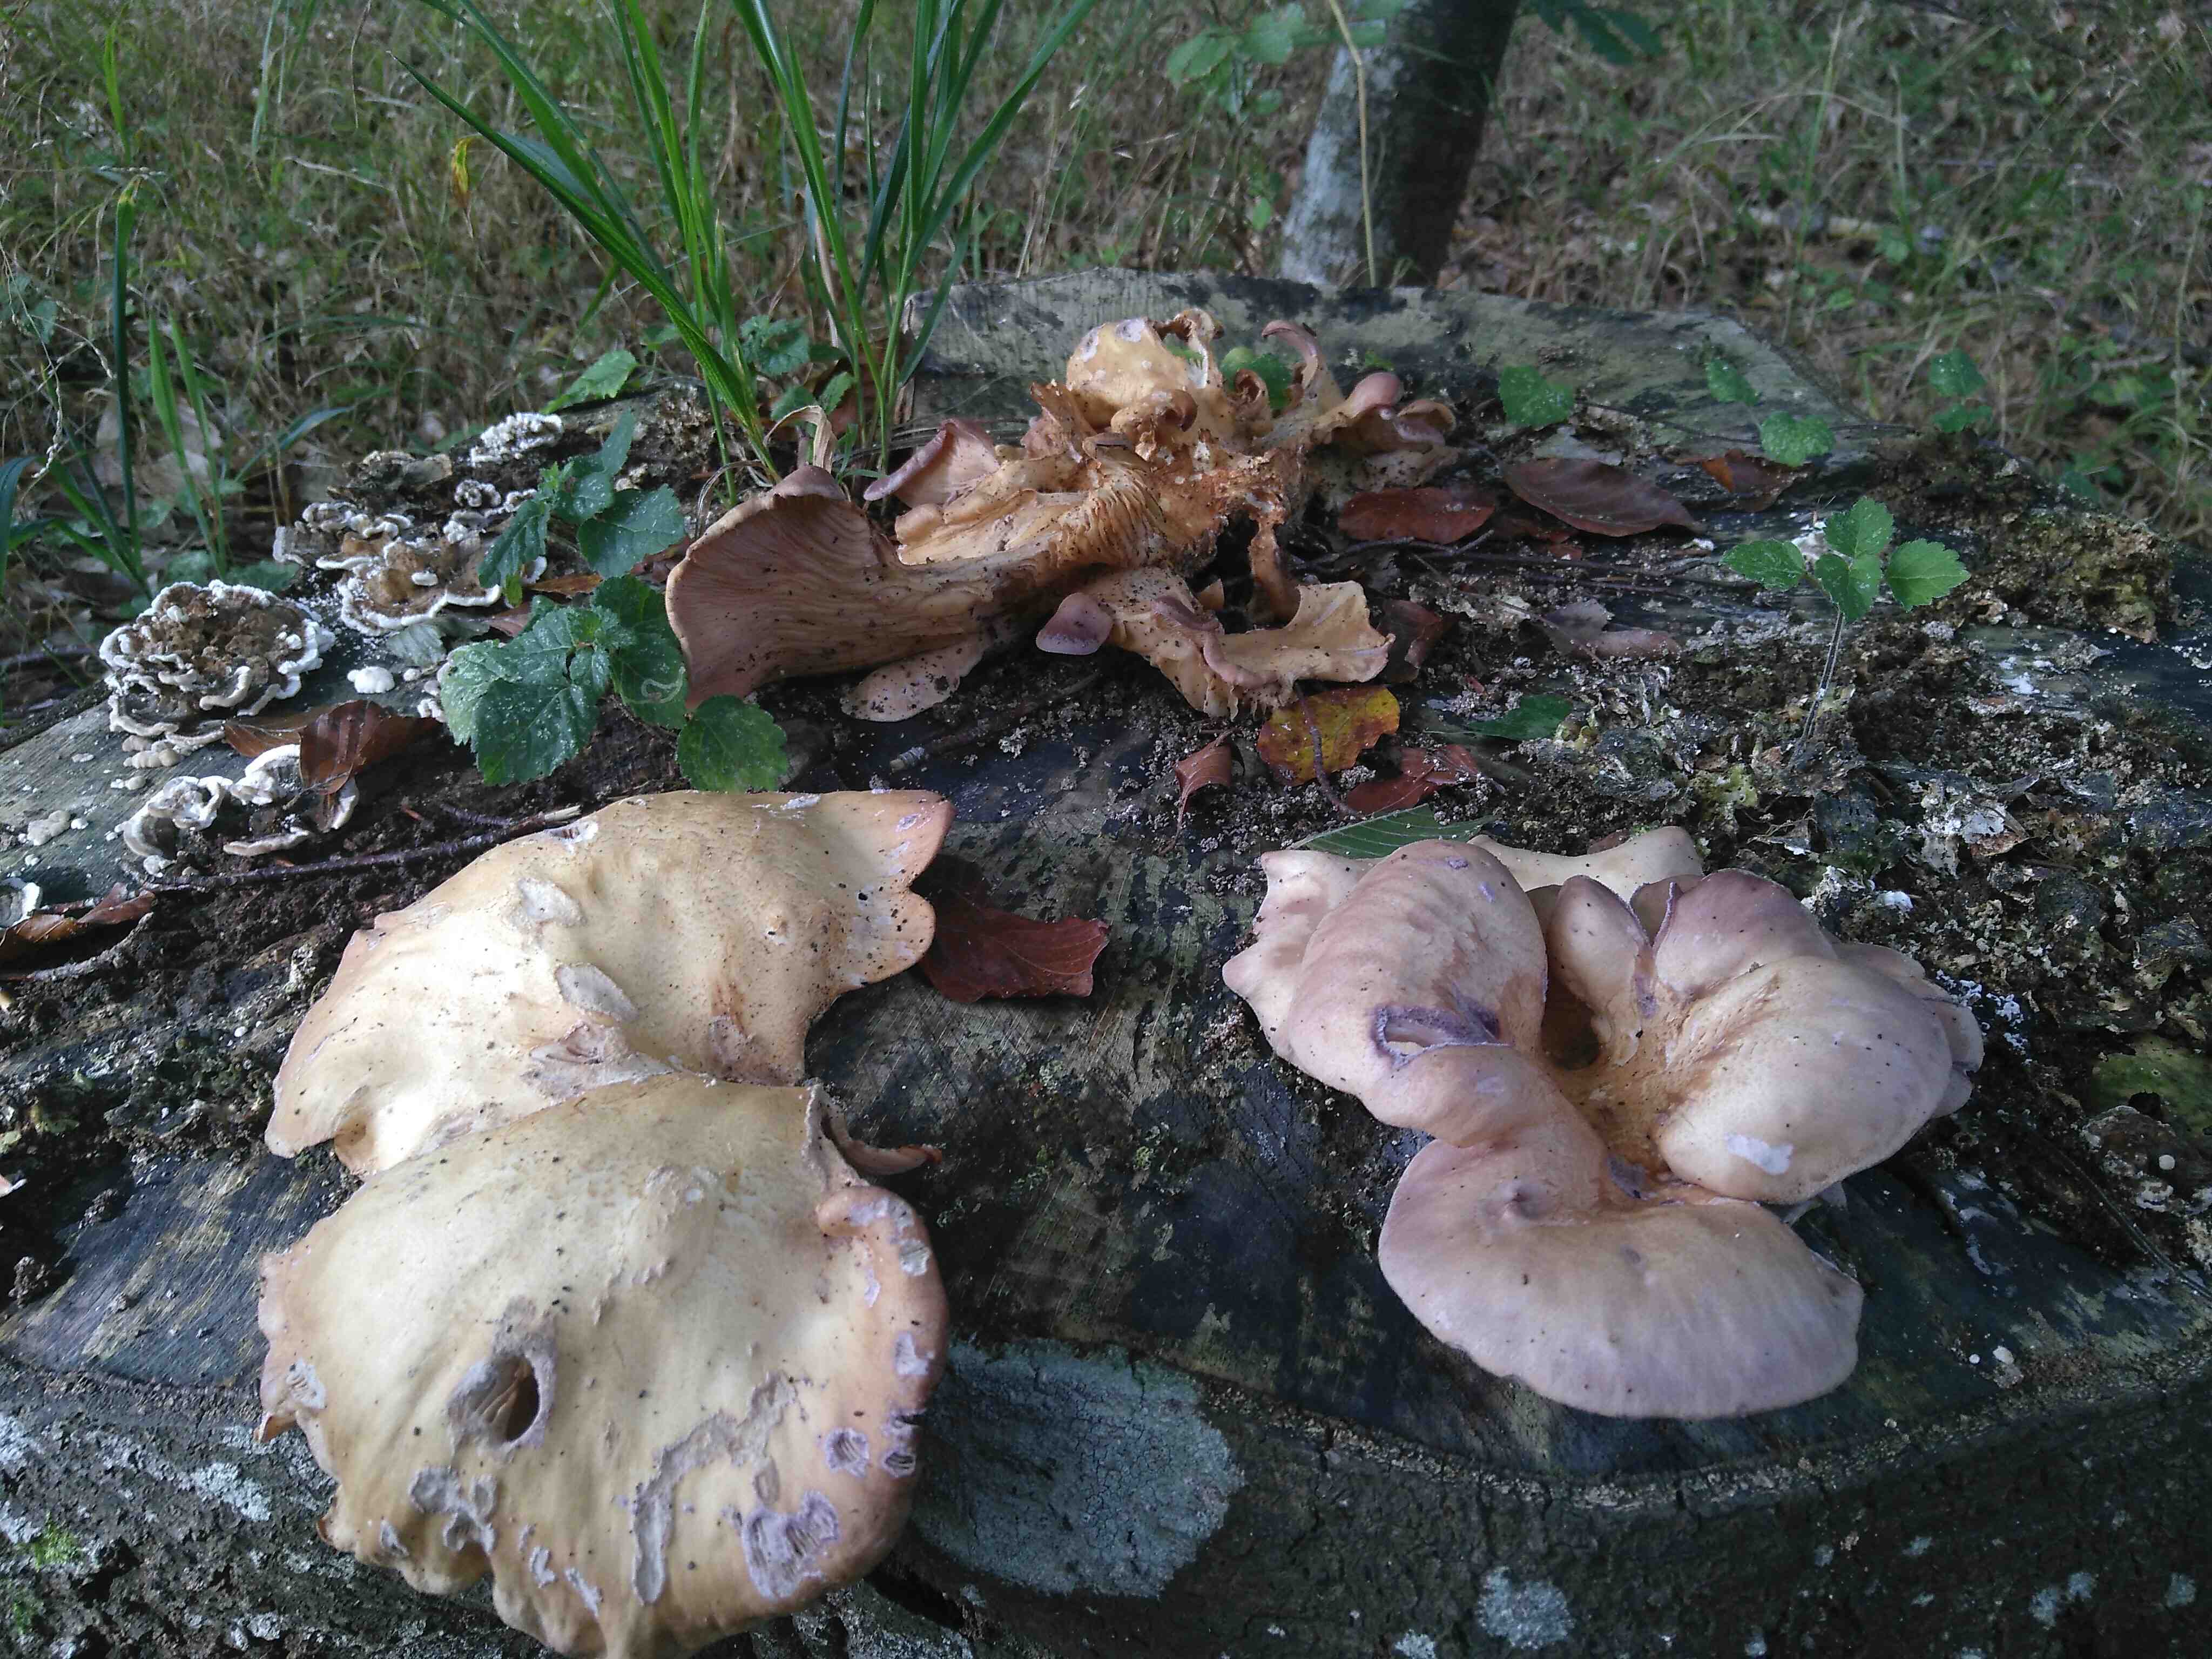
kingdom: Fungi
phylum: Basidiomycota
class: Agaricomycetes
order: Polyporales
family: Panaceae
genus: Panus
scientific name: Panus conchatus
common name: filtstokket læderhat
